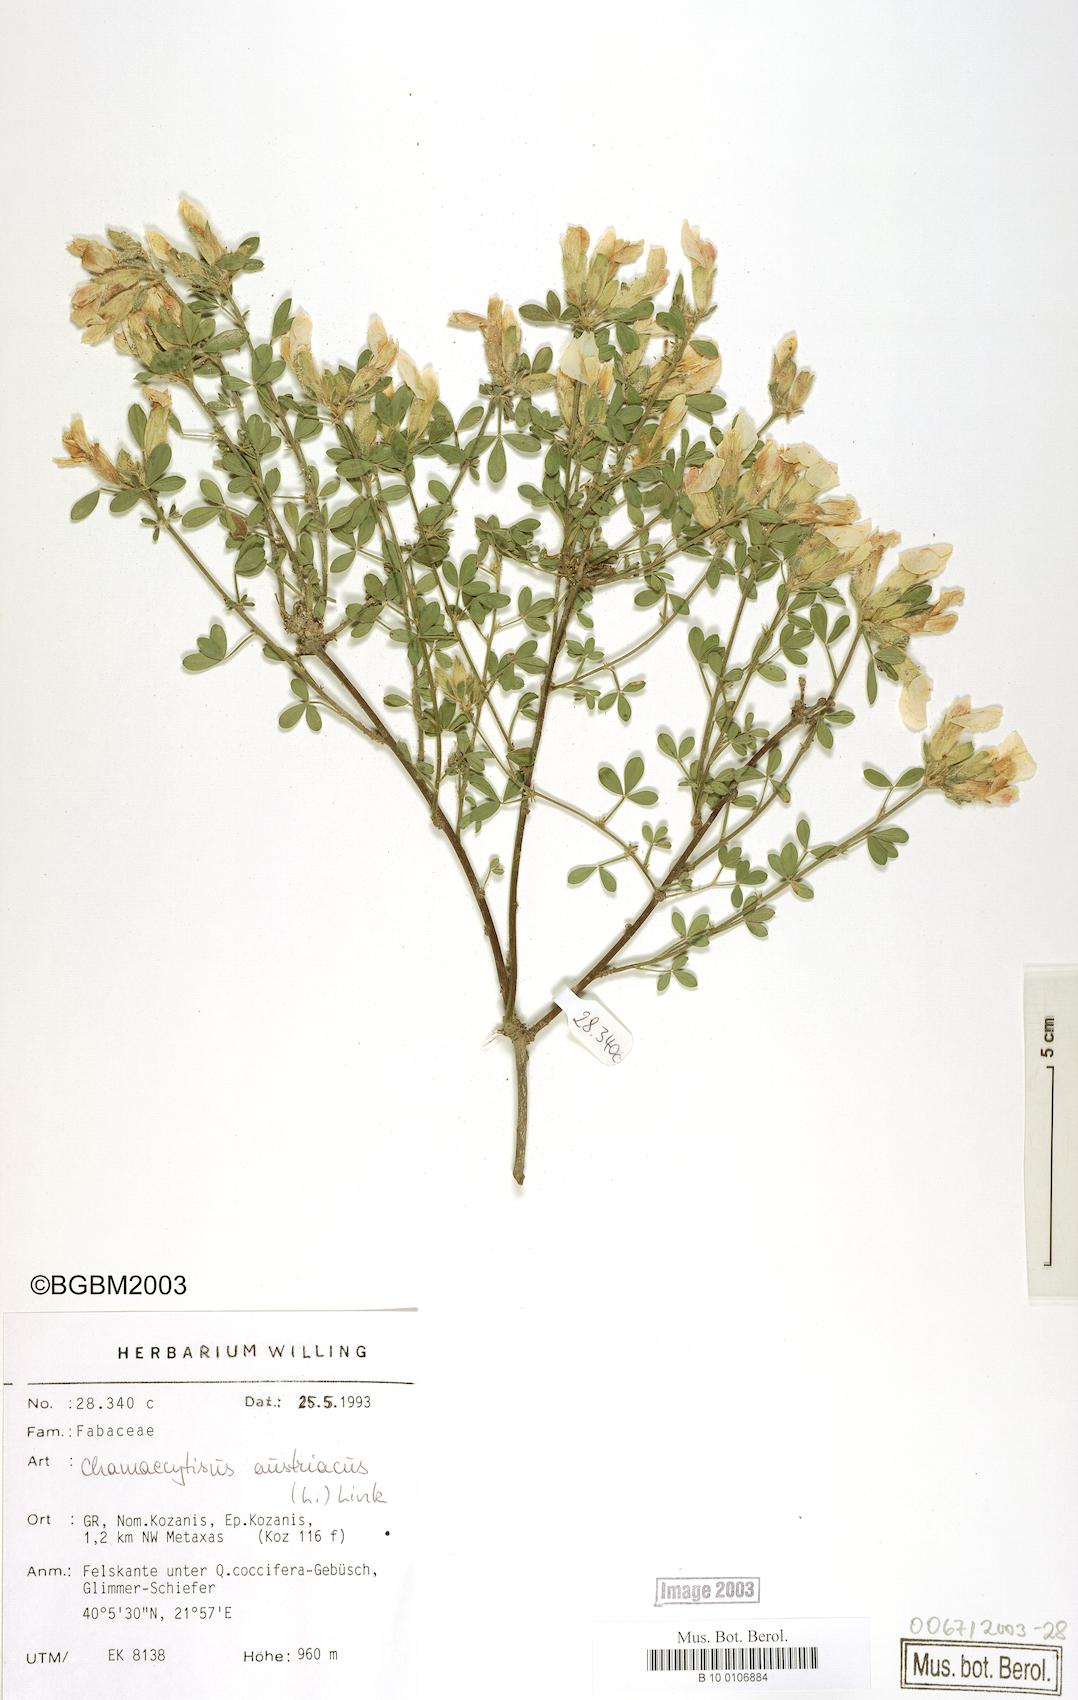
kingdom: Plantae
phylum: Tracheophyta
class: Magnoliopsida
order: Fabales
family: Fabaceae
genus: Chamaecytisus
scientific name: Chamaecytisus austriacus
